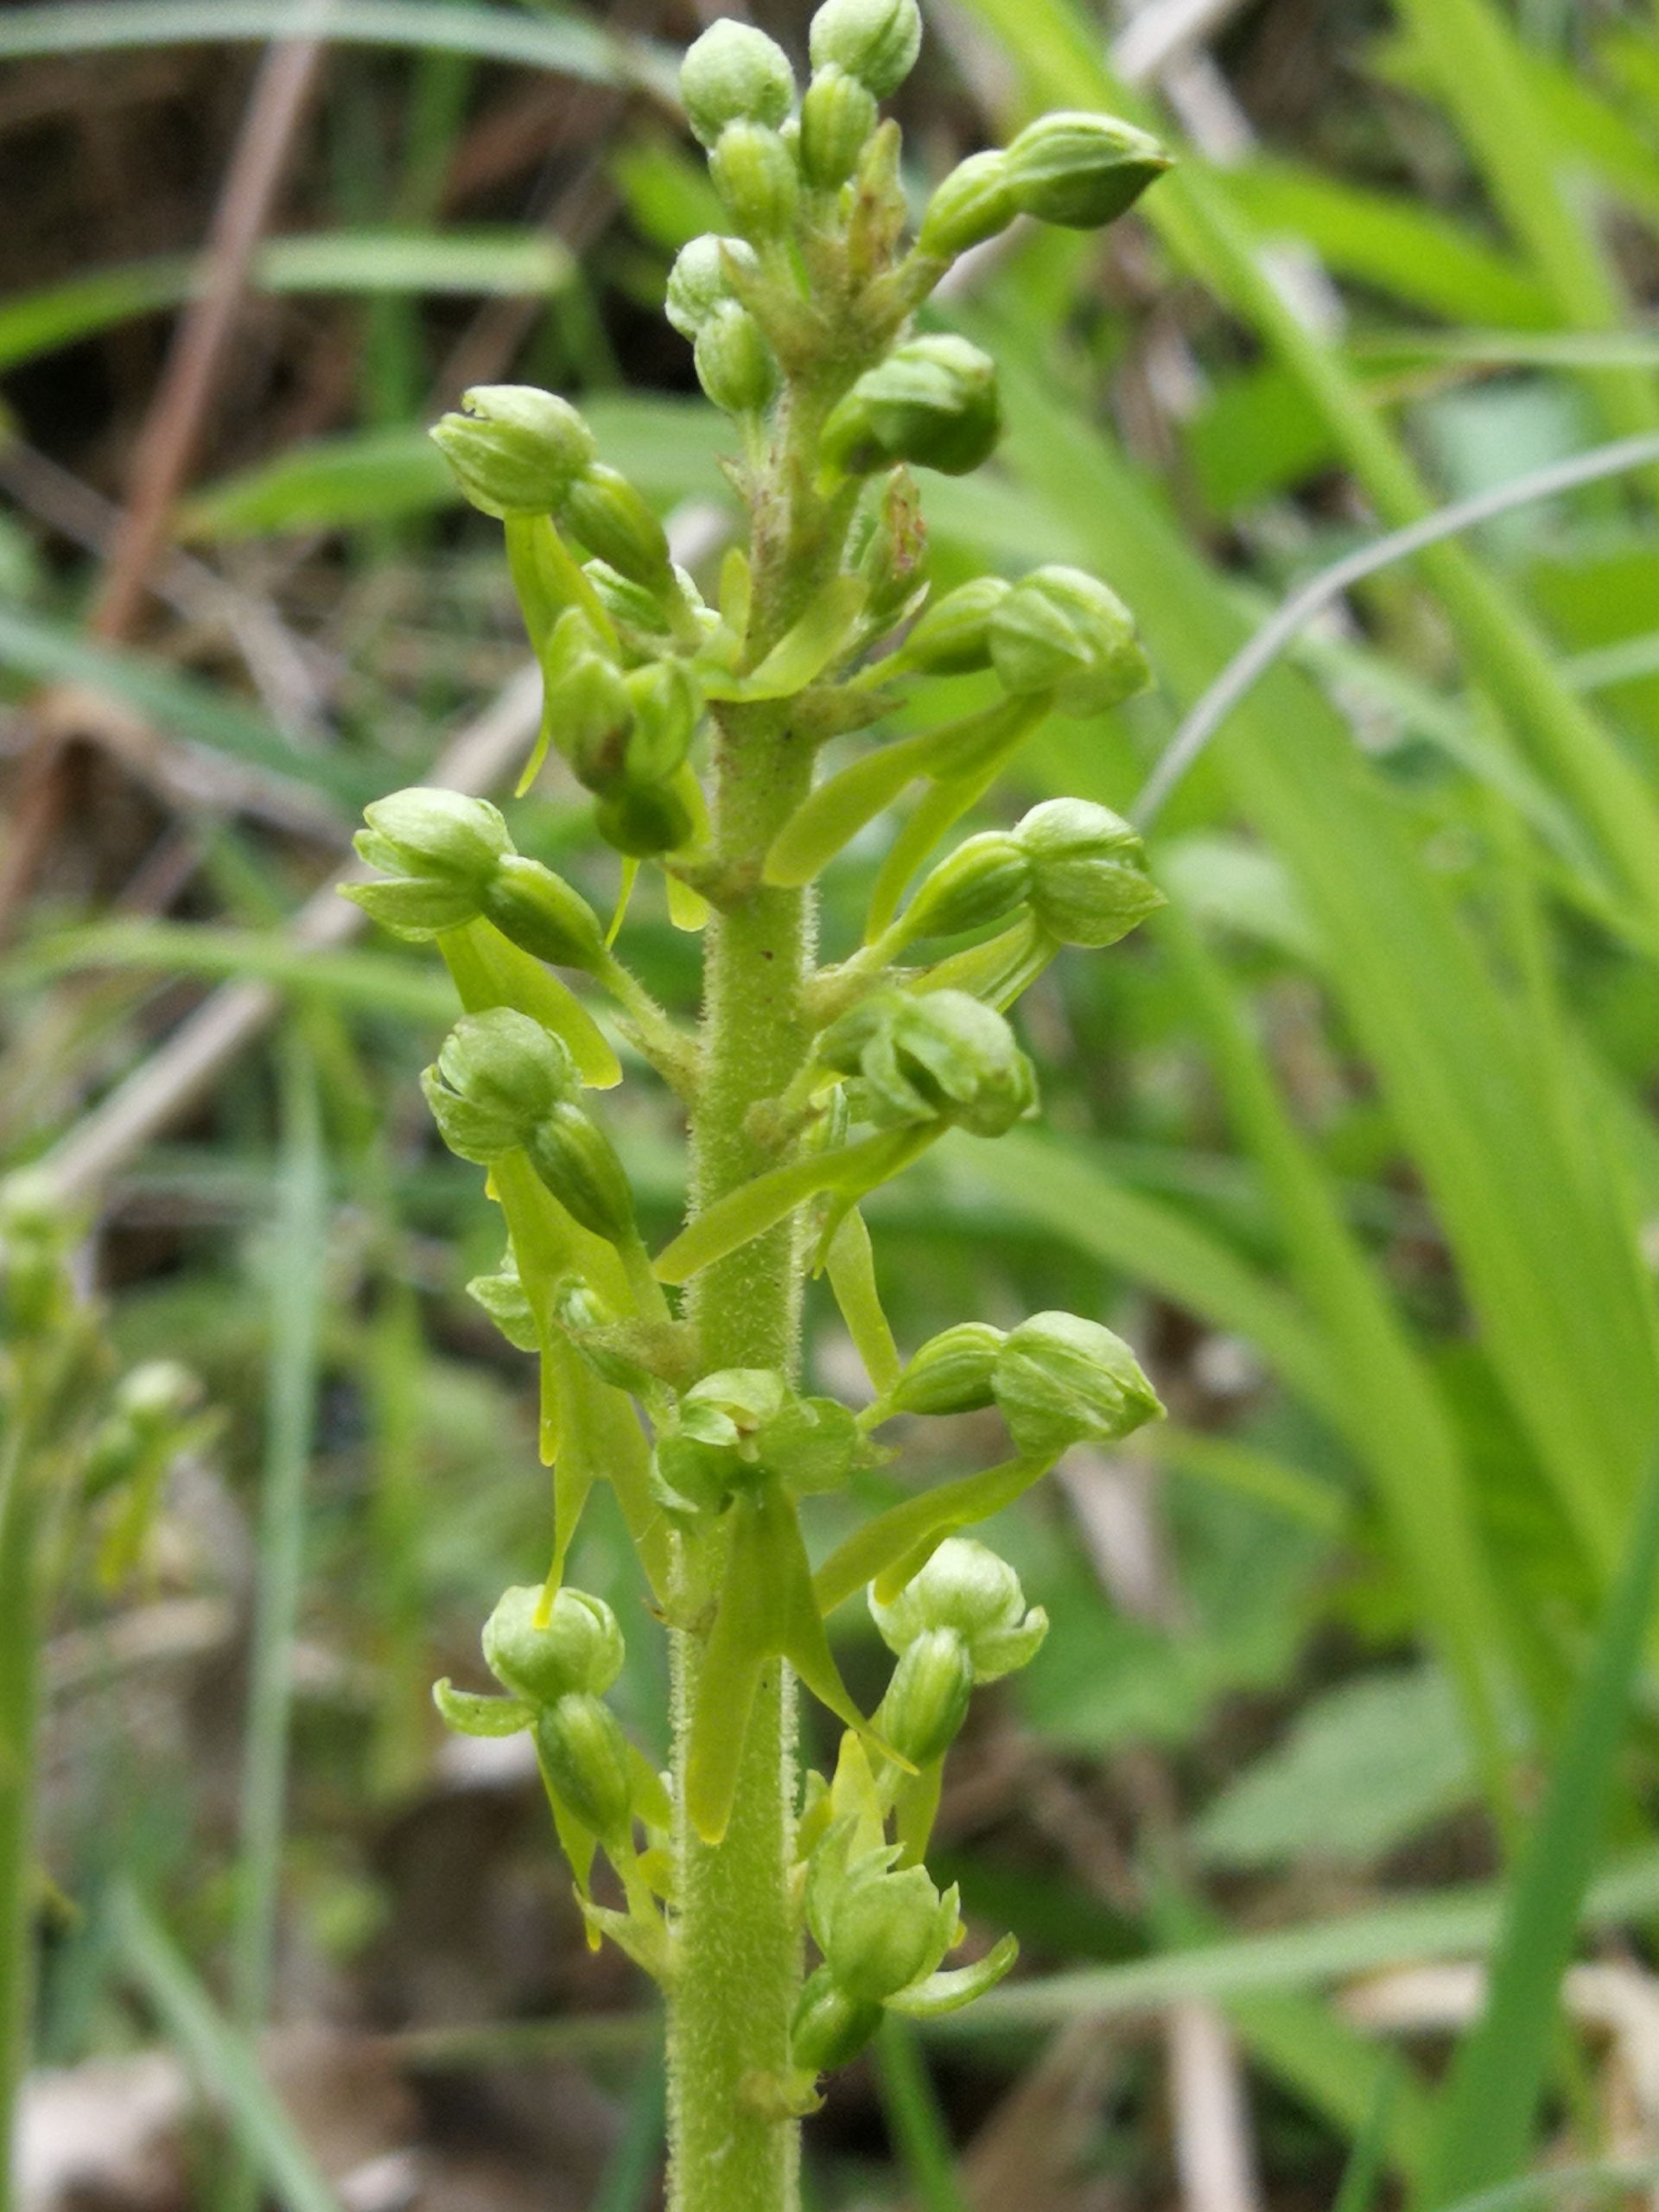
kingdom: Plantae
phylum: Tracheophyta
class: Liliopsida
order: Asparagales
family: Orchidaceae
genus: Neottia
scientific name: Neottia ovata
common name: Ægbladet fliglæbe
